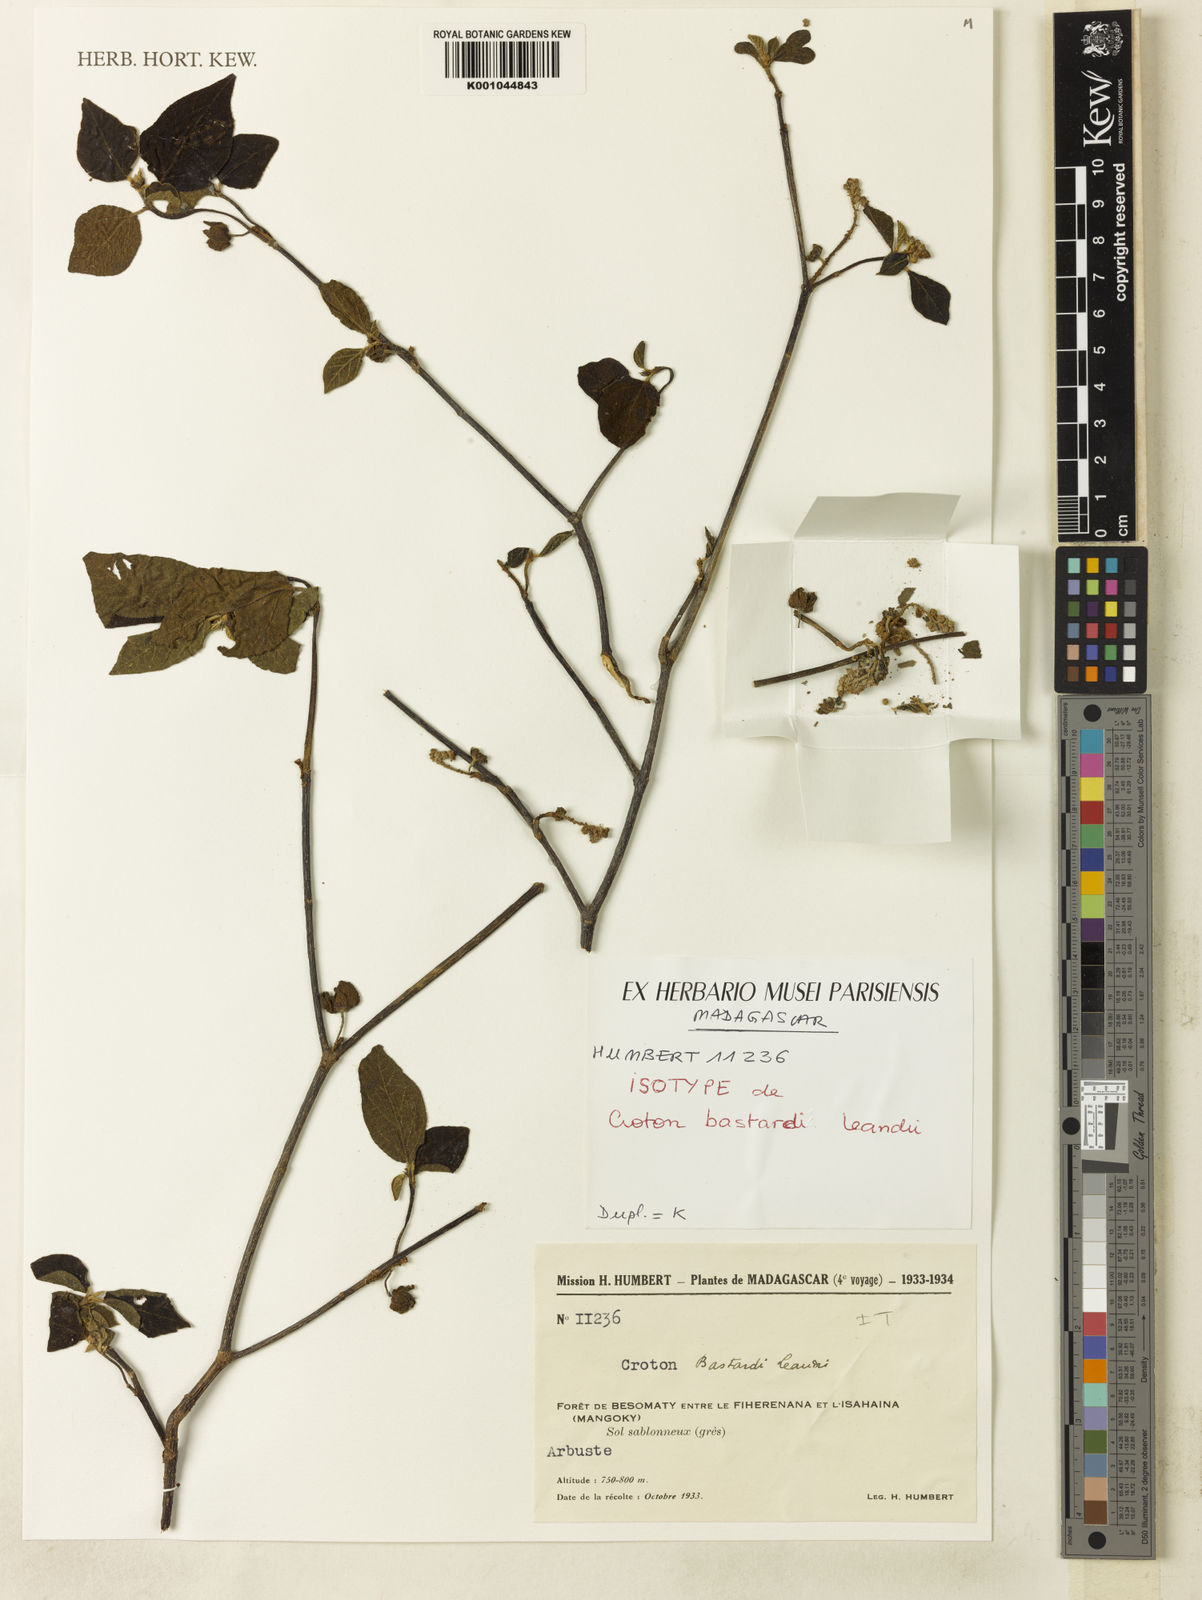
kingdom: Plantae
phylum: Tracheophyta
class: Magnoliopsida
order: Malpighiales
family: Euphorbiaceae
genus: Croton
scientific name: Croton bastardii
